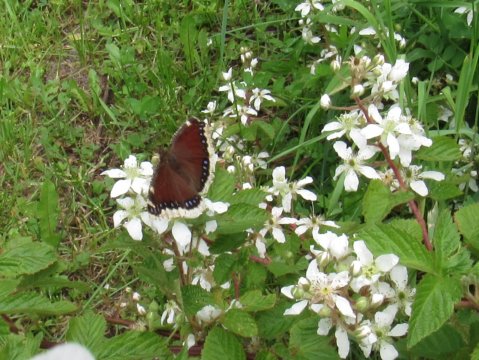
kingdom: Animalia
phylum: Arthropoda
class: Insecta
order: Lepidoptera
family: Nymphalidae
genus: Nymphalis
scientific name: Nymphalis antiopa
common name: Mourning Cloak
